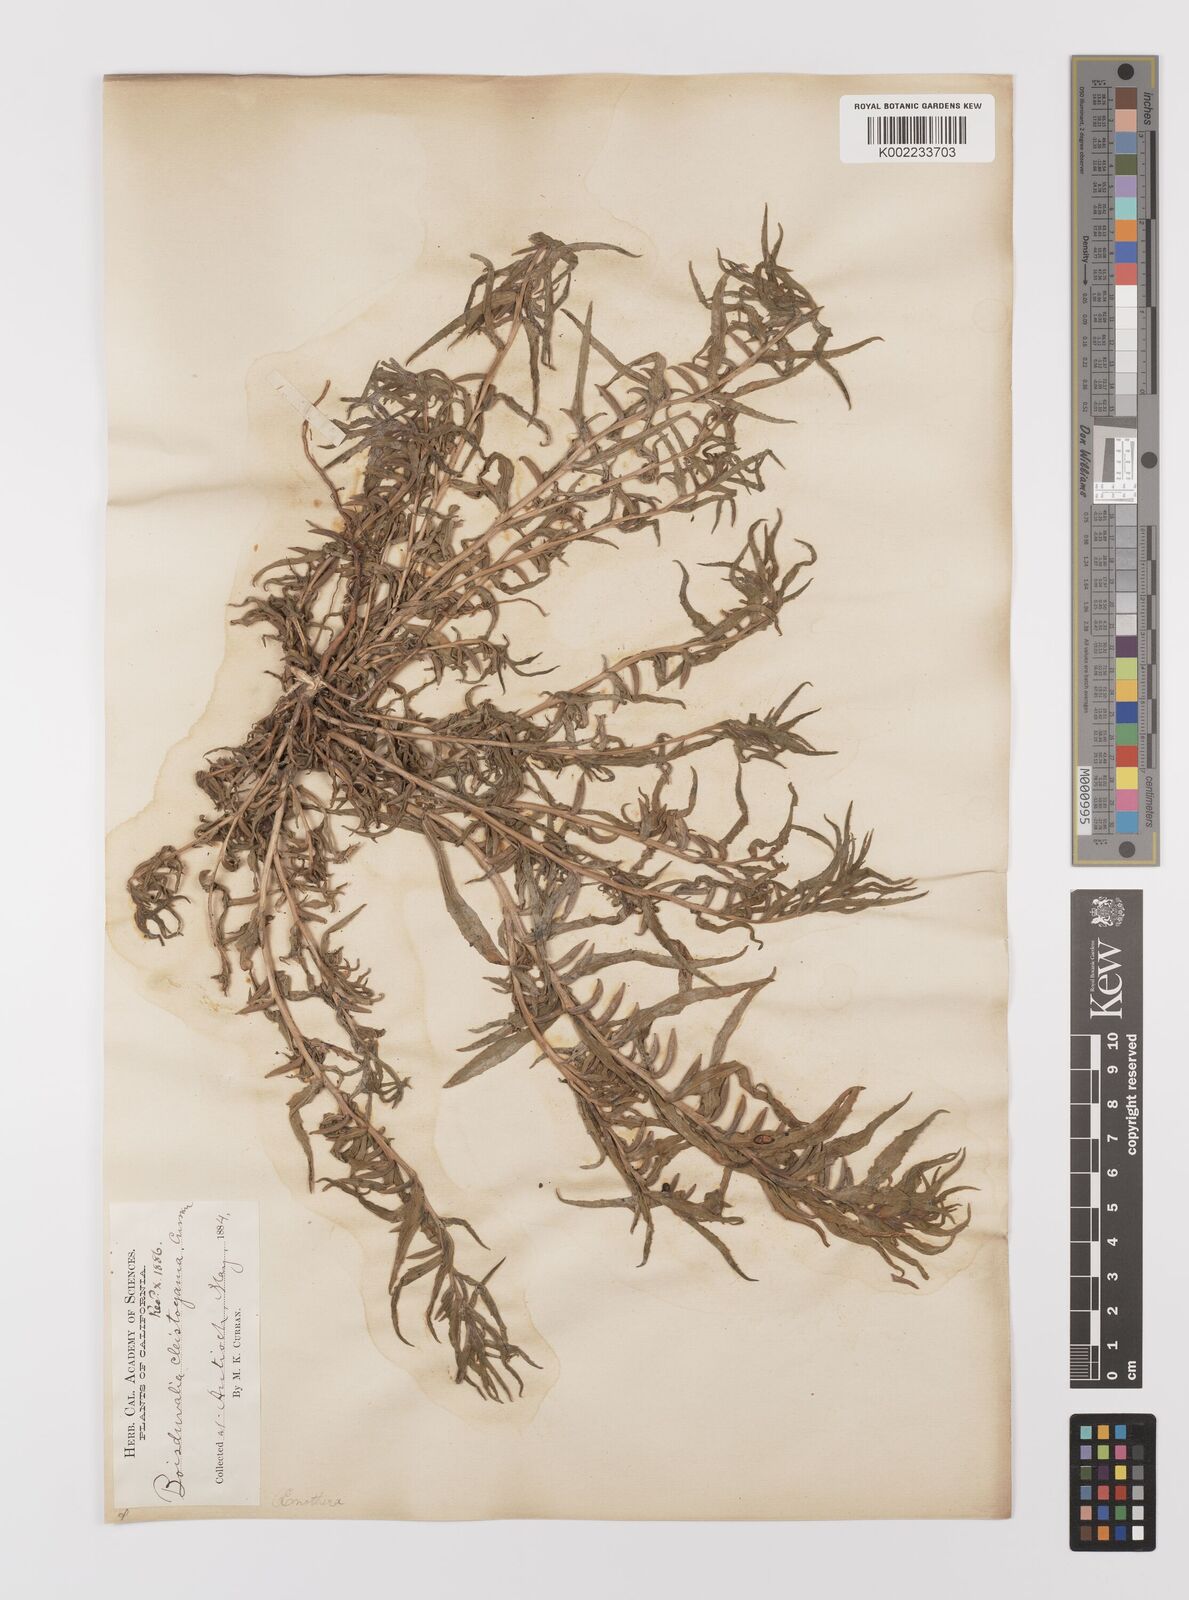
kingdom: Plantae
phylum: Tracheophyta
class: Magnoliopsida
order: Myrtales
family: Onagraceae
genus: Epilobium
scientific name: Epilobium cleistogamum
